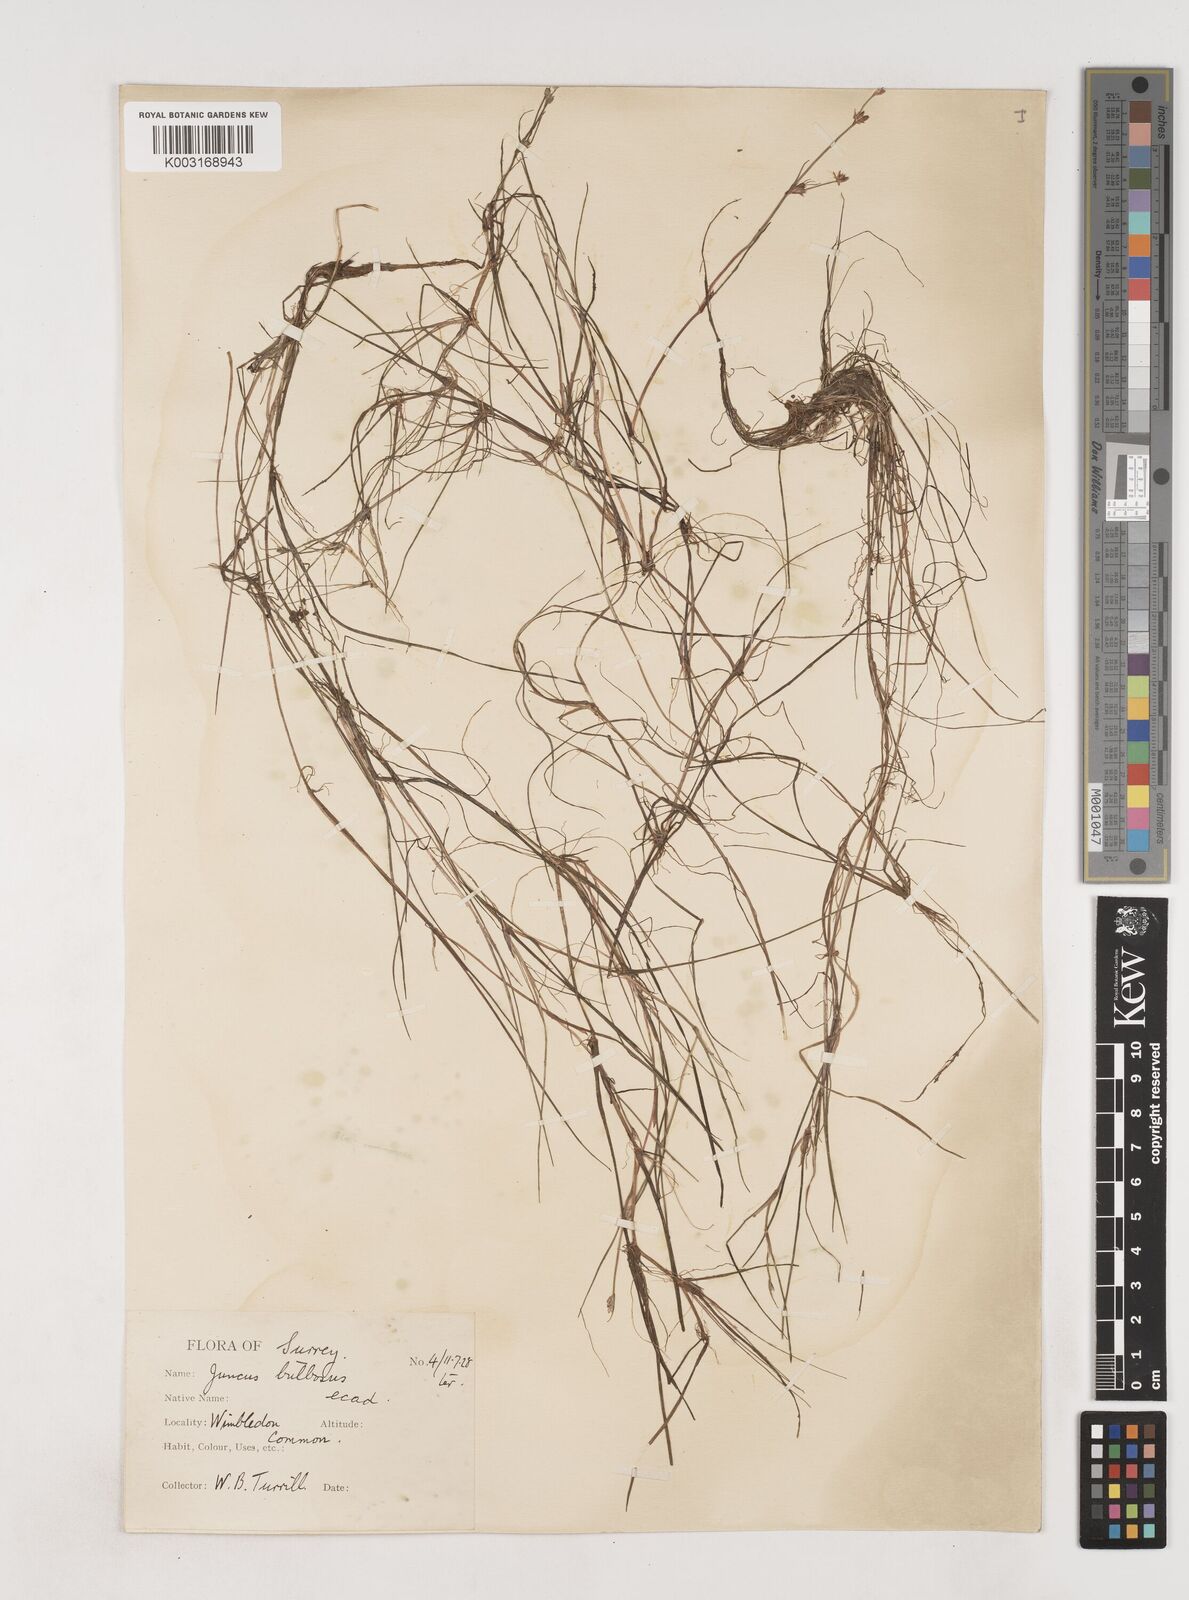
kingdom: Plantae
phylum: Tracheophyta
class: Liliopsida
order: Poales
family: Juncaceae
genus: Juncus
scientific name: Juncus bulbosus
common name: Bulbous rush
